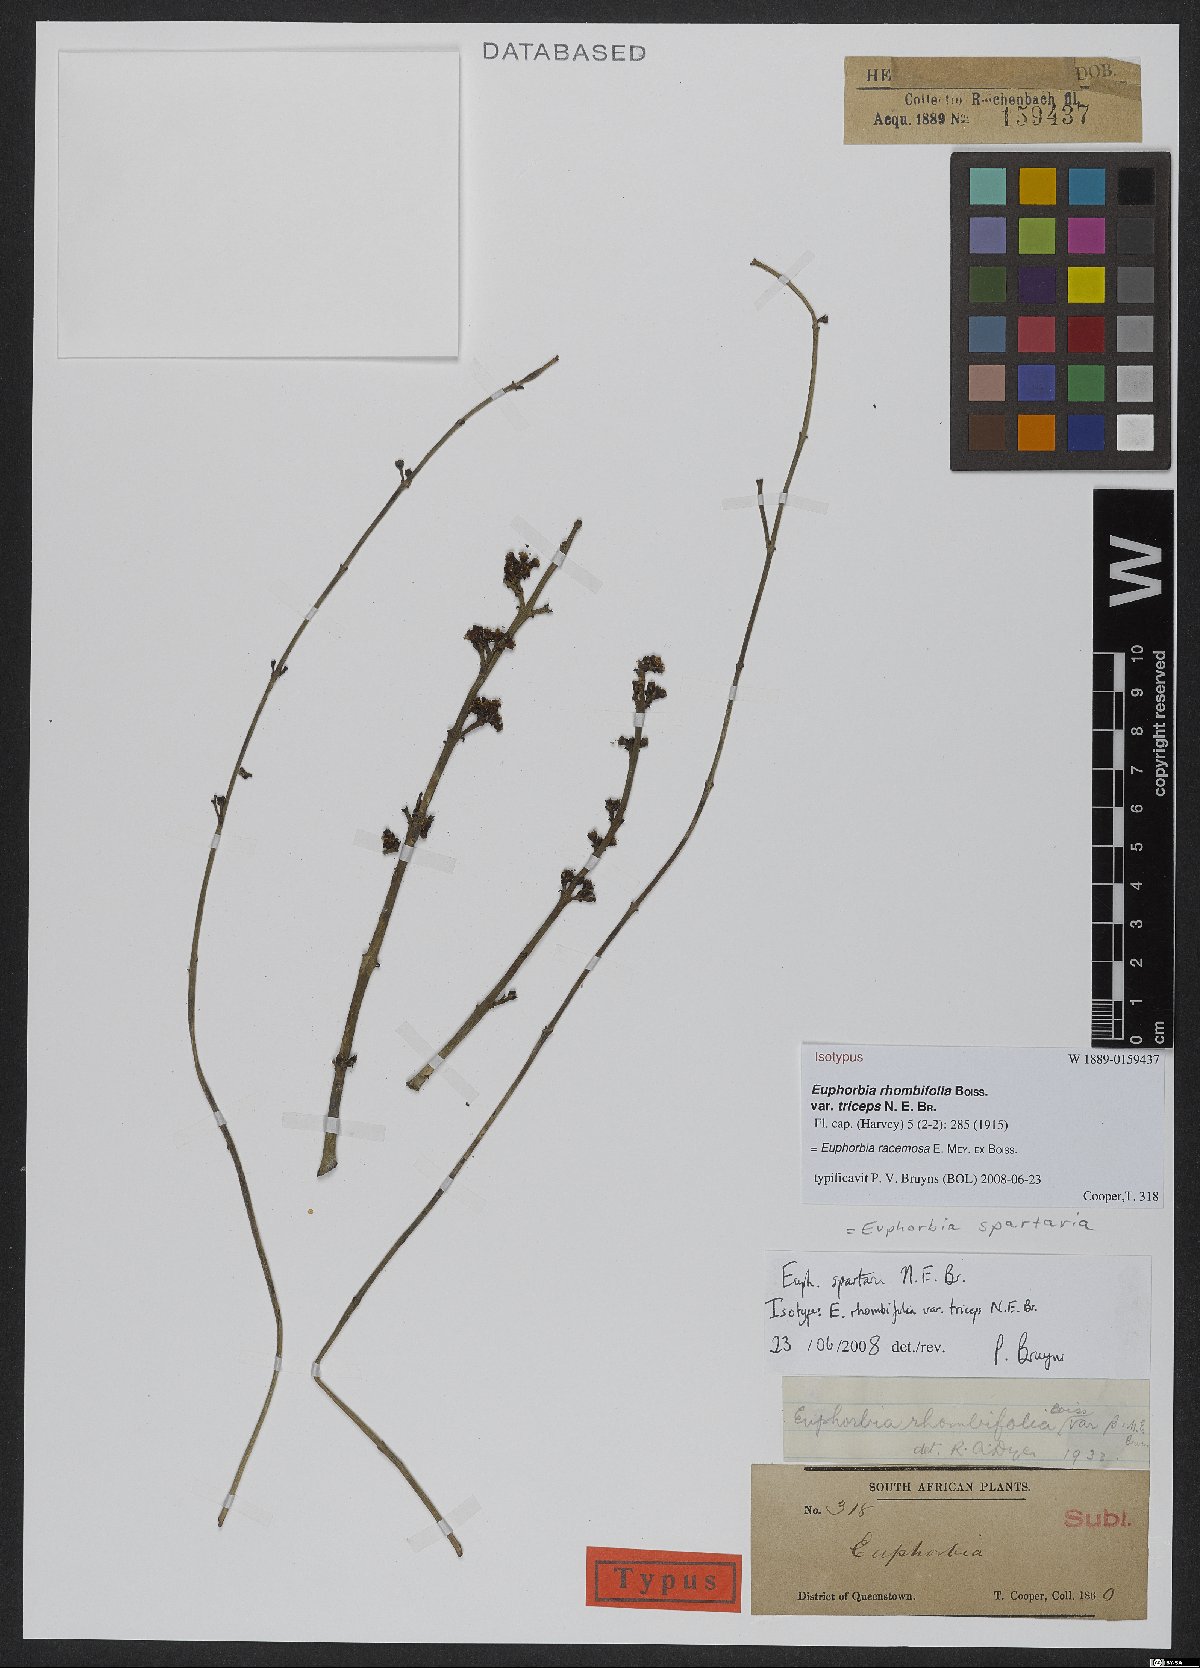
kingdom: Plantae
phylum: Tracheophyta
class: Magnoliopsida
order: Malpighiales
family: Euphorbiaceae
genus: Euphorbia
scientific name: Euphorbia racemosa
